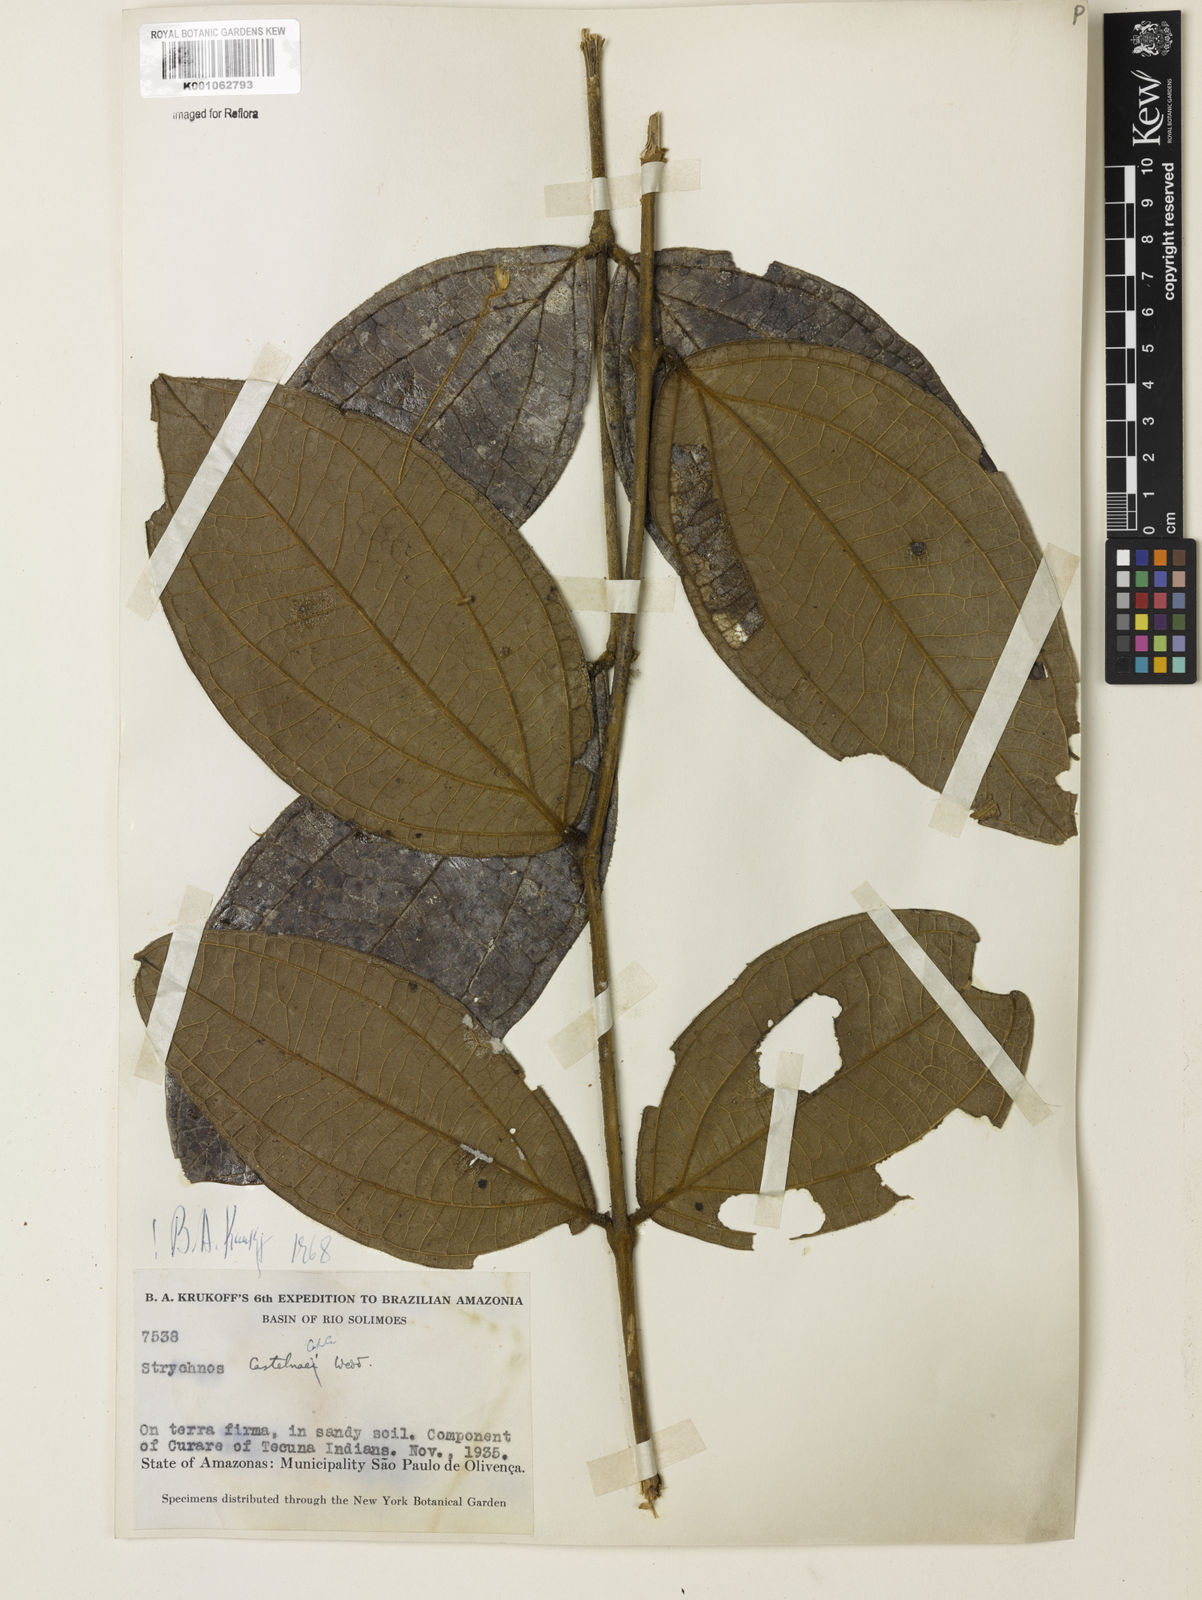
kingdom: Plantae
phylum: Tracheophyta
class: Magnoliopsida
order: Gentianales
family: Loganiaceae
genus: Strychnos
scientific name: Strychnos
